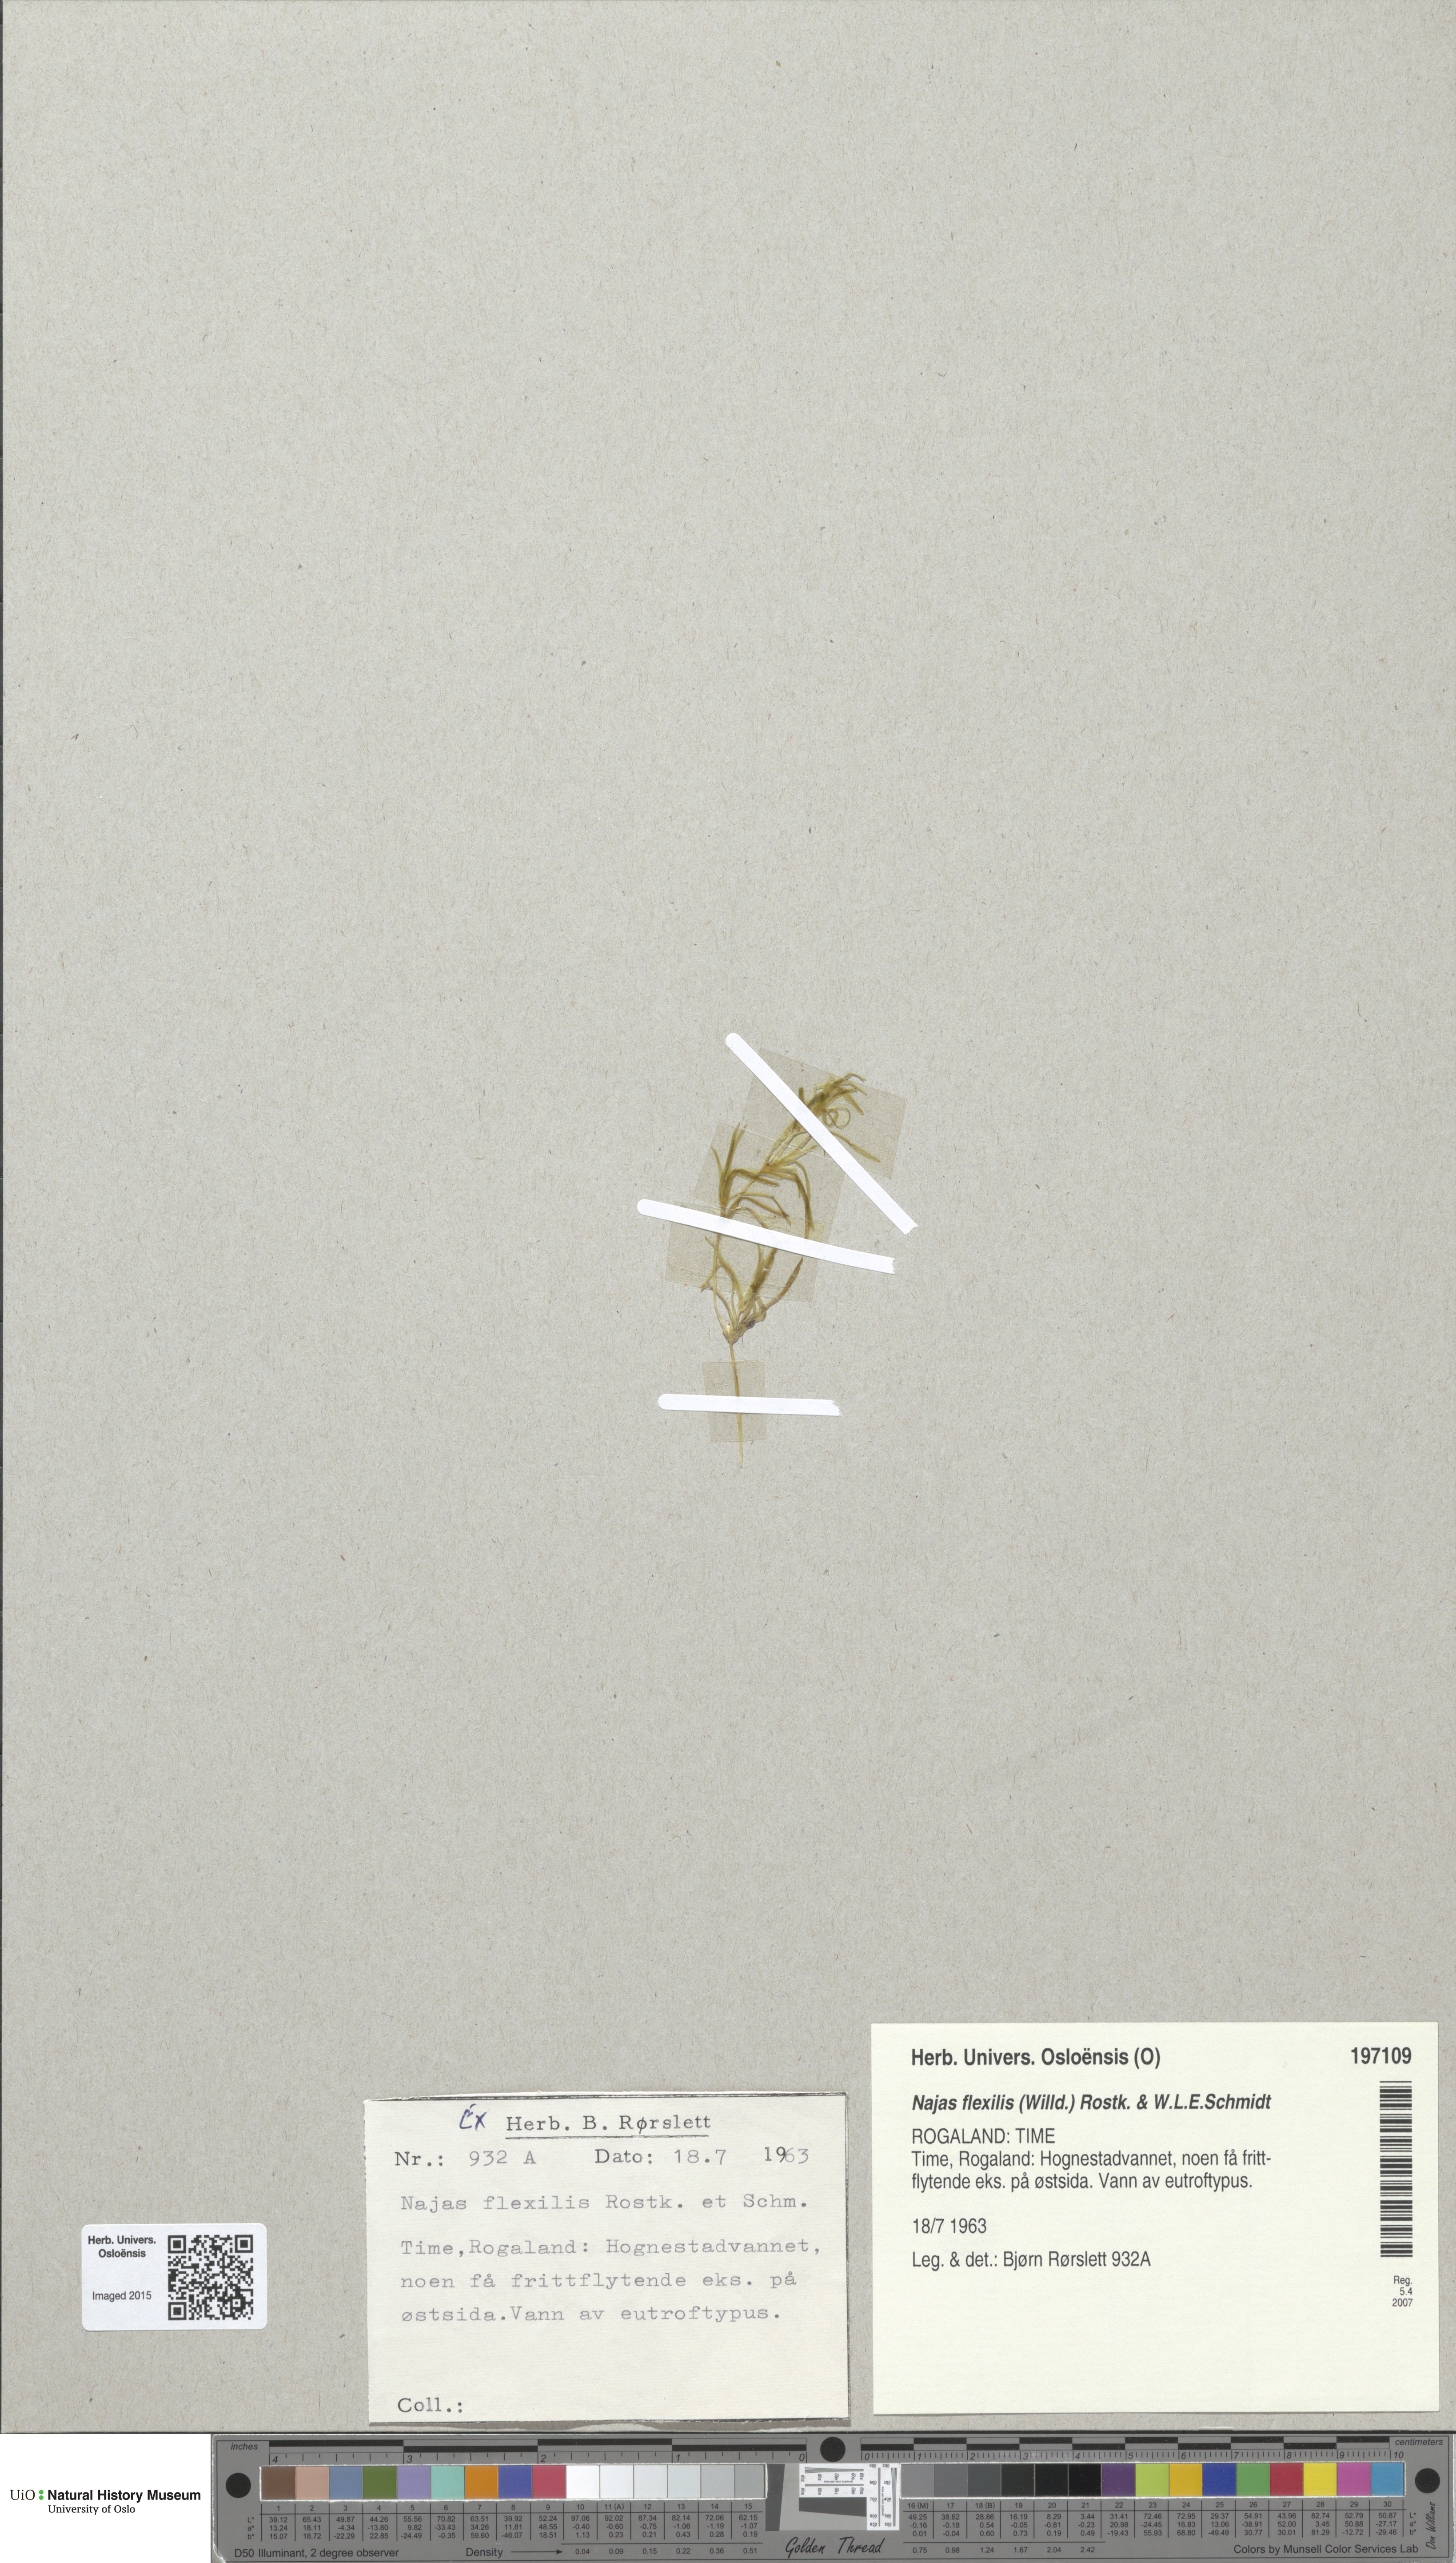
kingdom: Plantae
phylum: Tracheophyta
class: Liliopsida
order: Alismatales
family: Hydrocharitaceae
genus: Najas
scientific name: Najas flexilis
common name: Slender naiad
